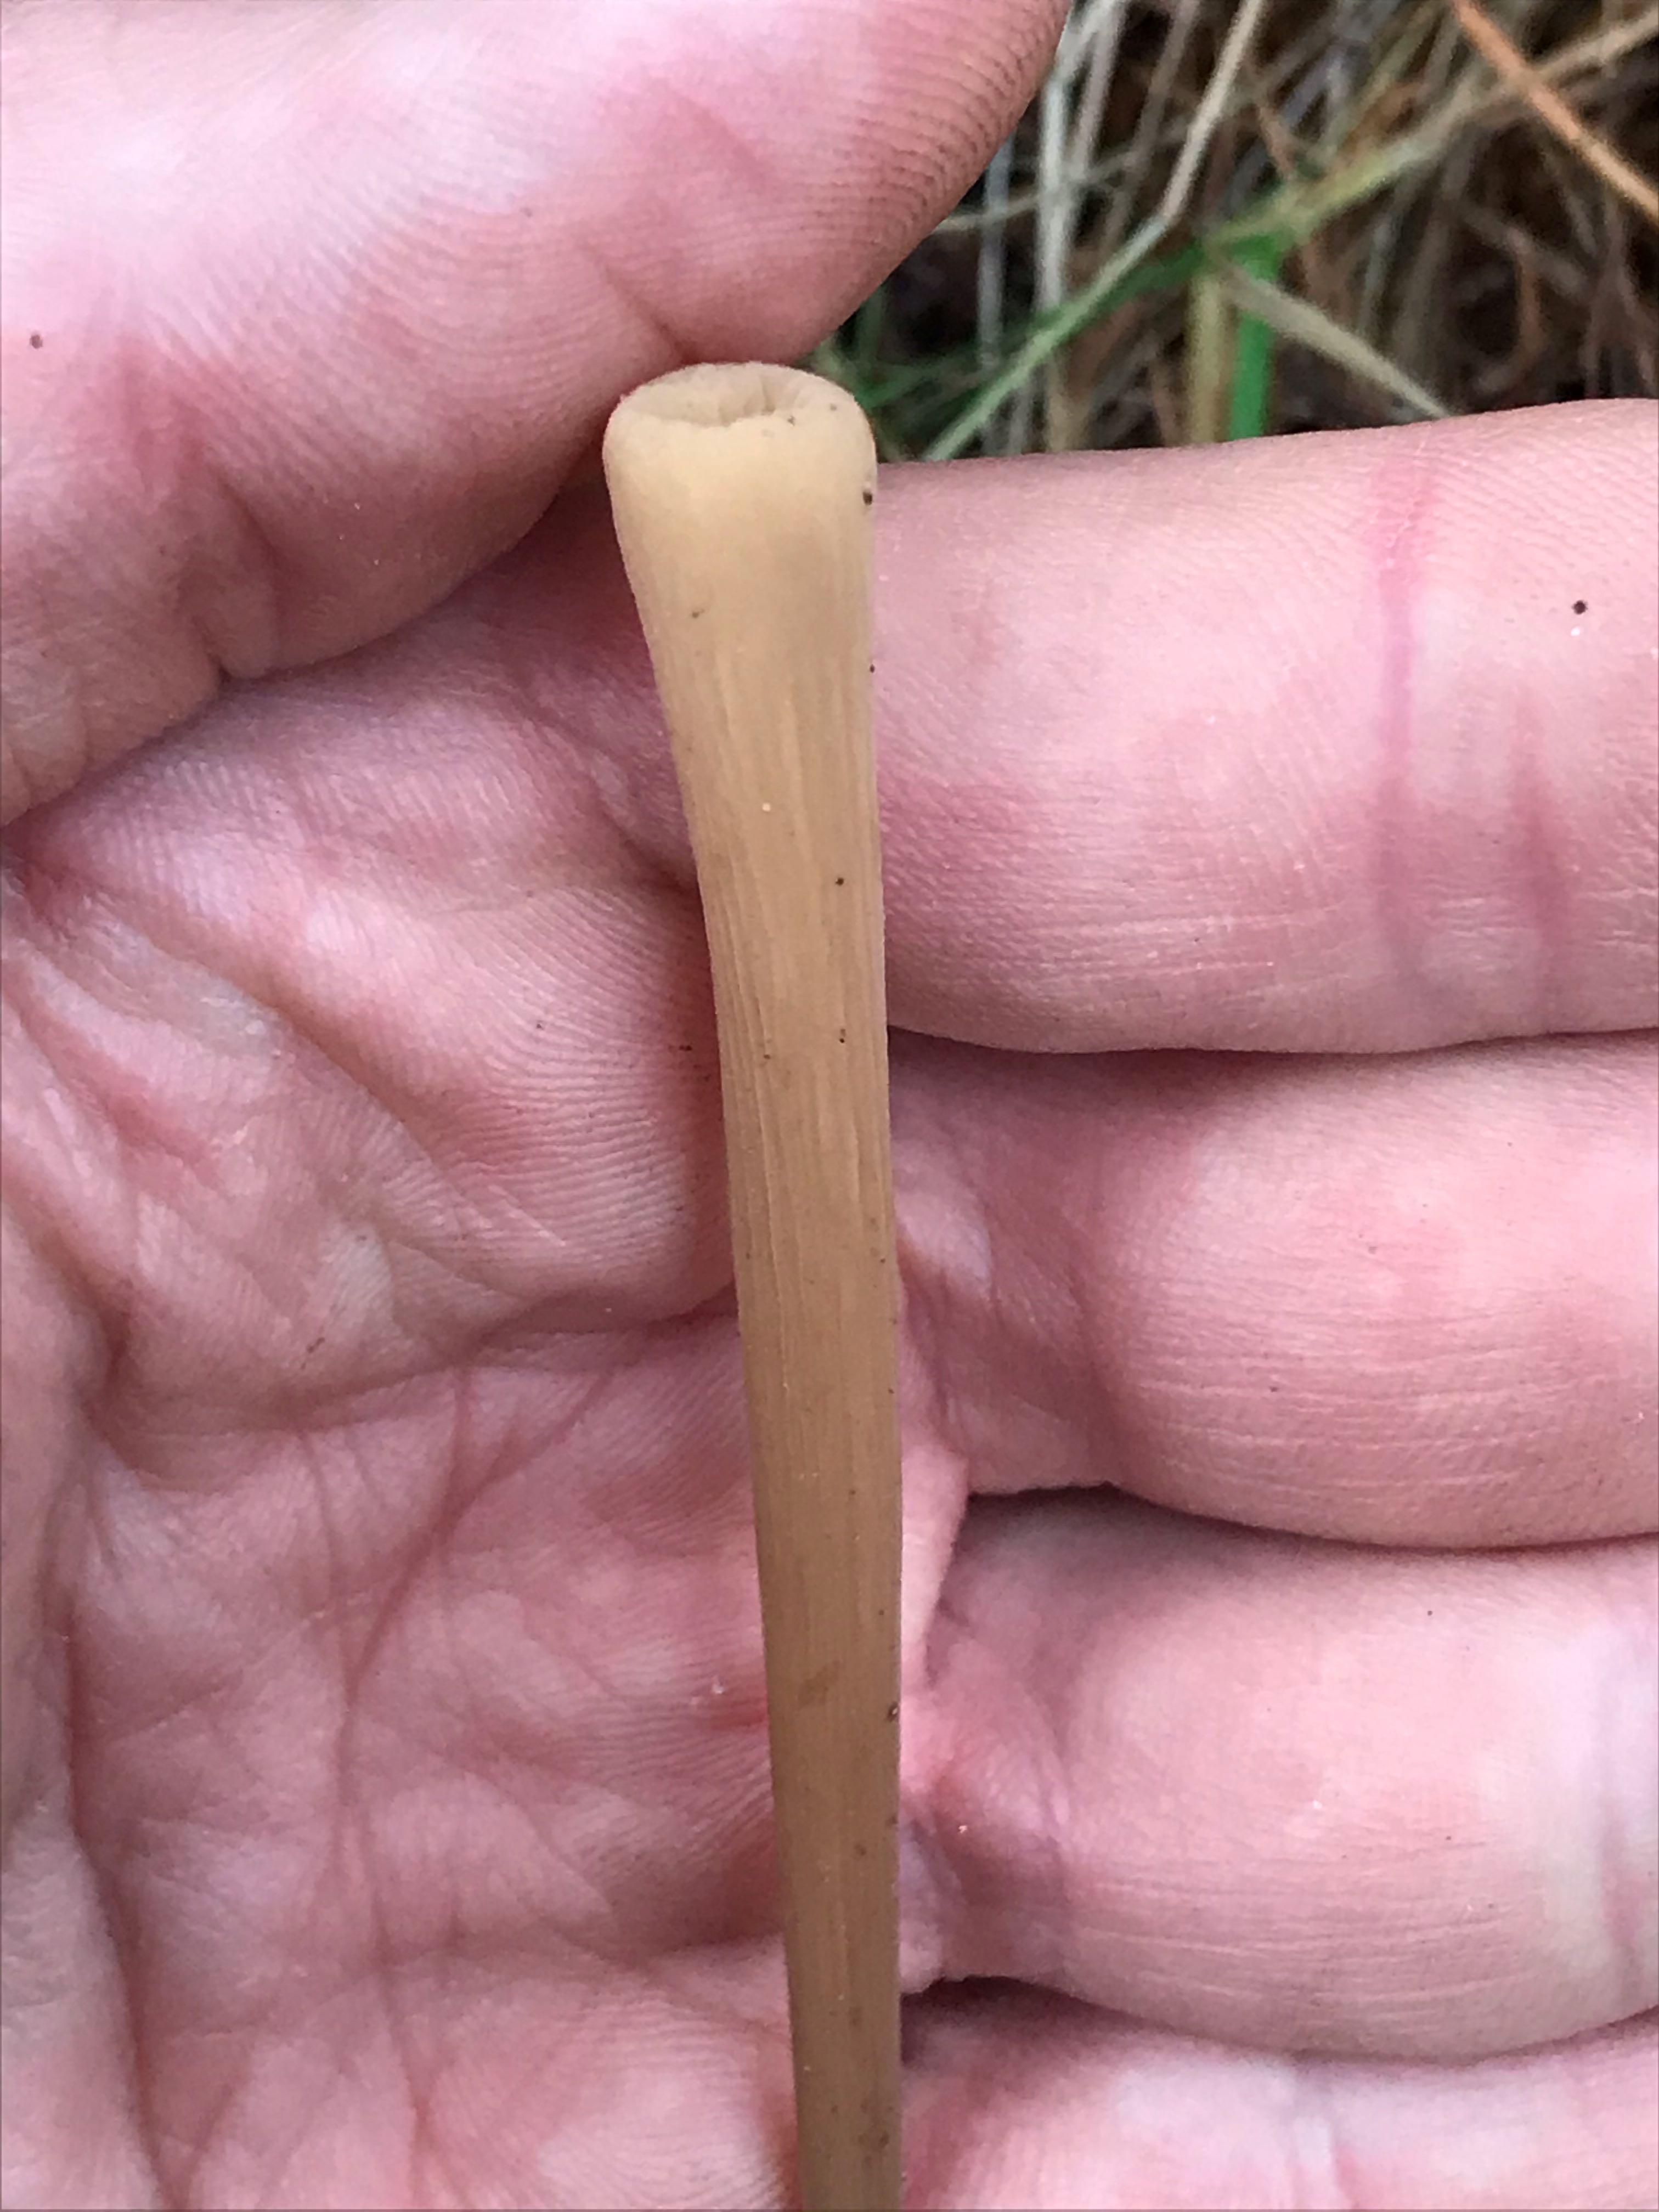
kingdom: Fungi
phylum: Basidiomycota
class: Agaricomycetes
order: Agaricales
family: Typhulaceae
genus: Typhula
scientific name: Typhula fistulosa
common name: pibet rørkølle
